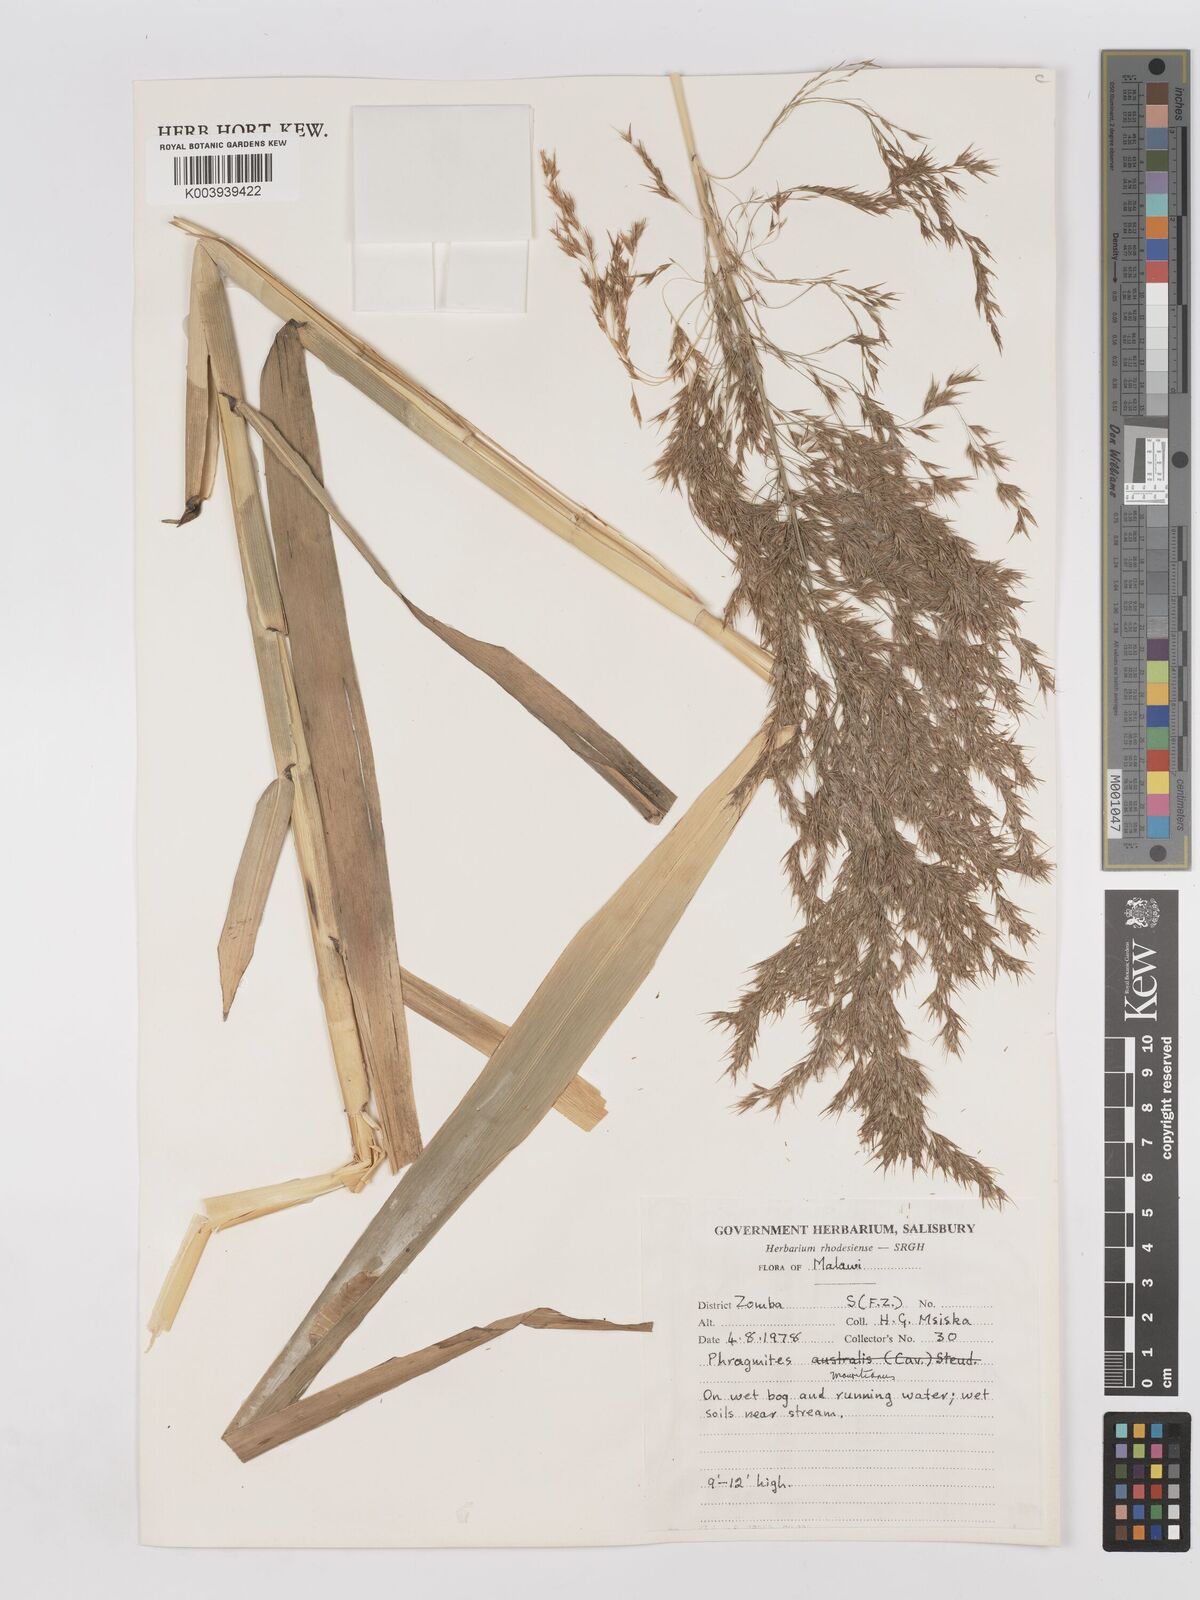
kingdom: Plantae
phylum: Tracheophyta
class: Liliopsida
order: Poales
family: Poaceae
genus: Phragmites
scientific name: Phragmites mauritianus
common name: Reed grass
